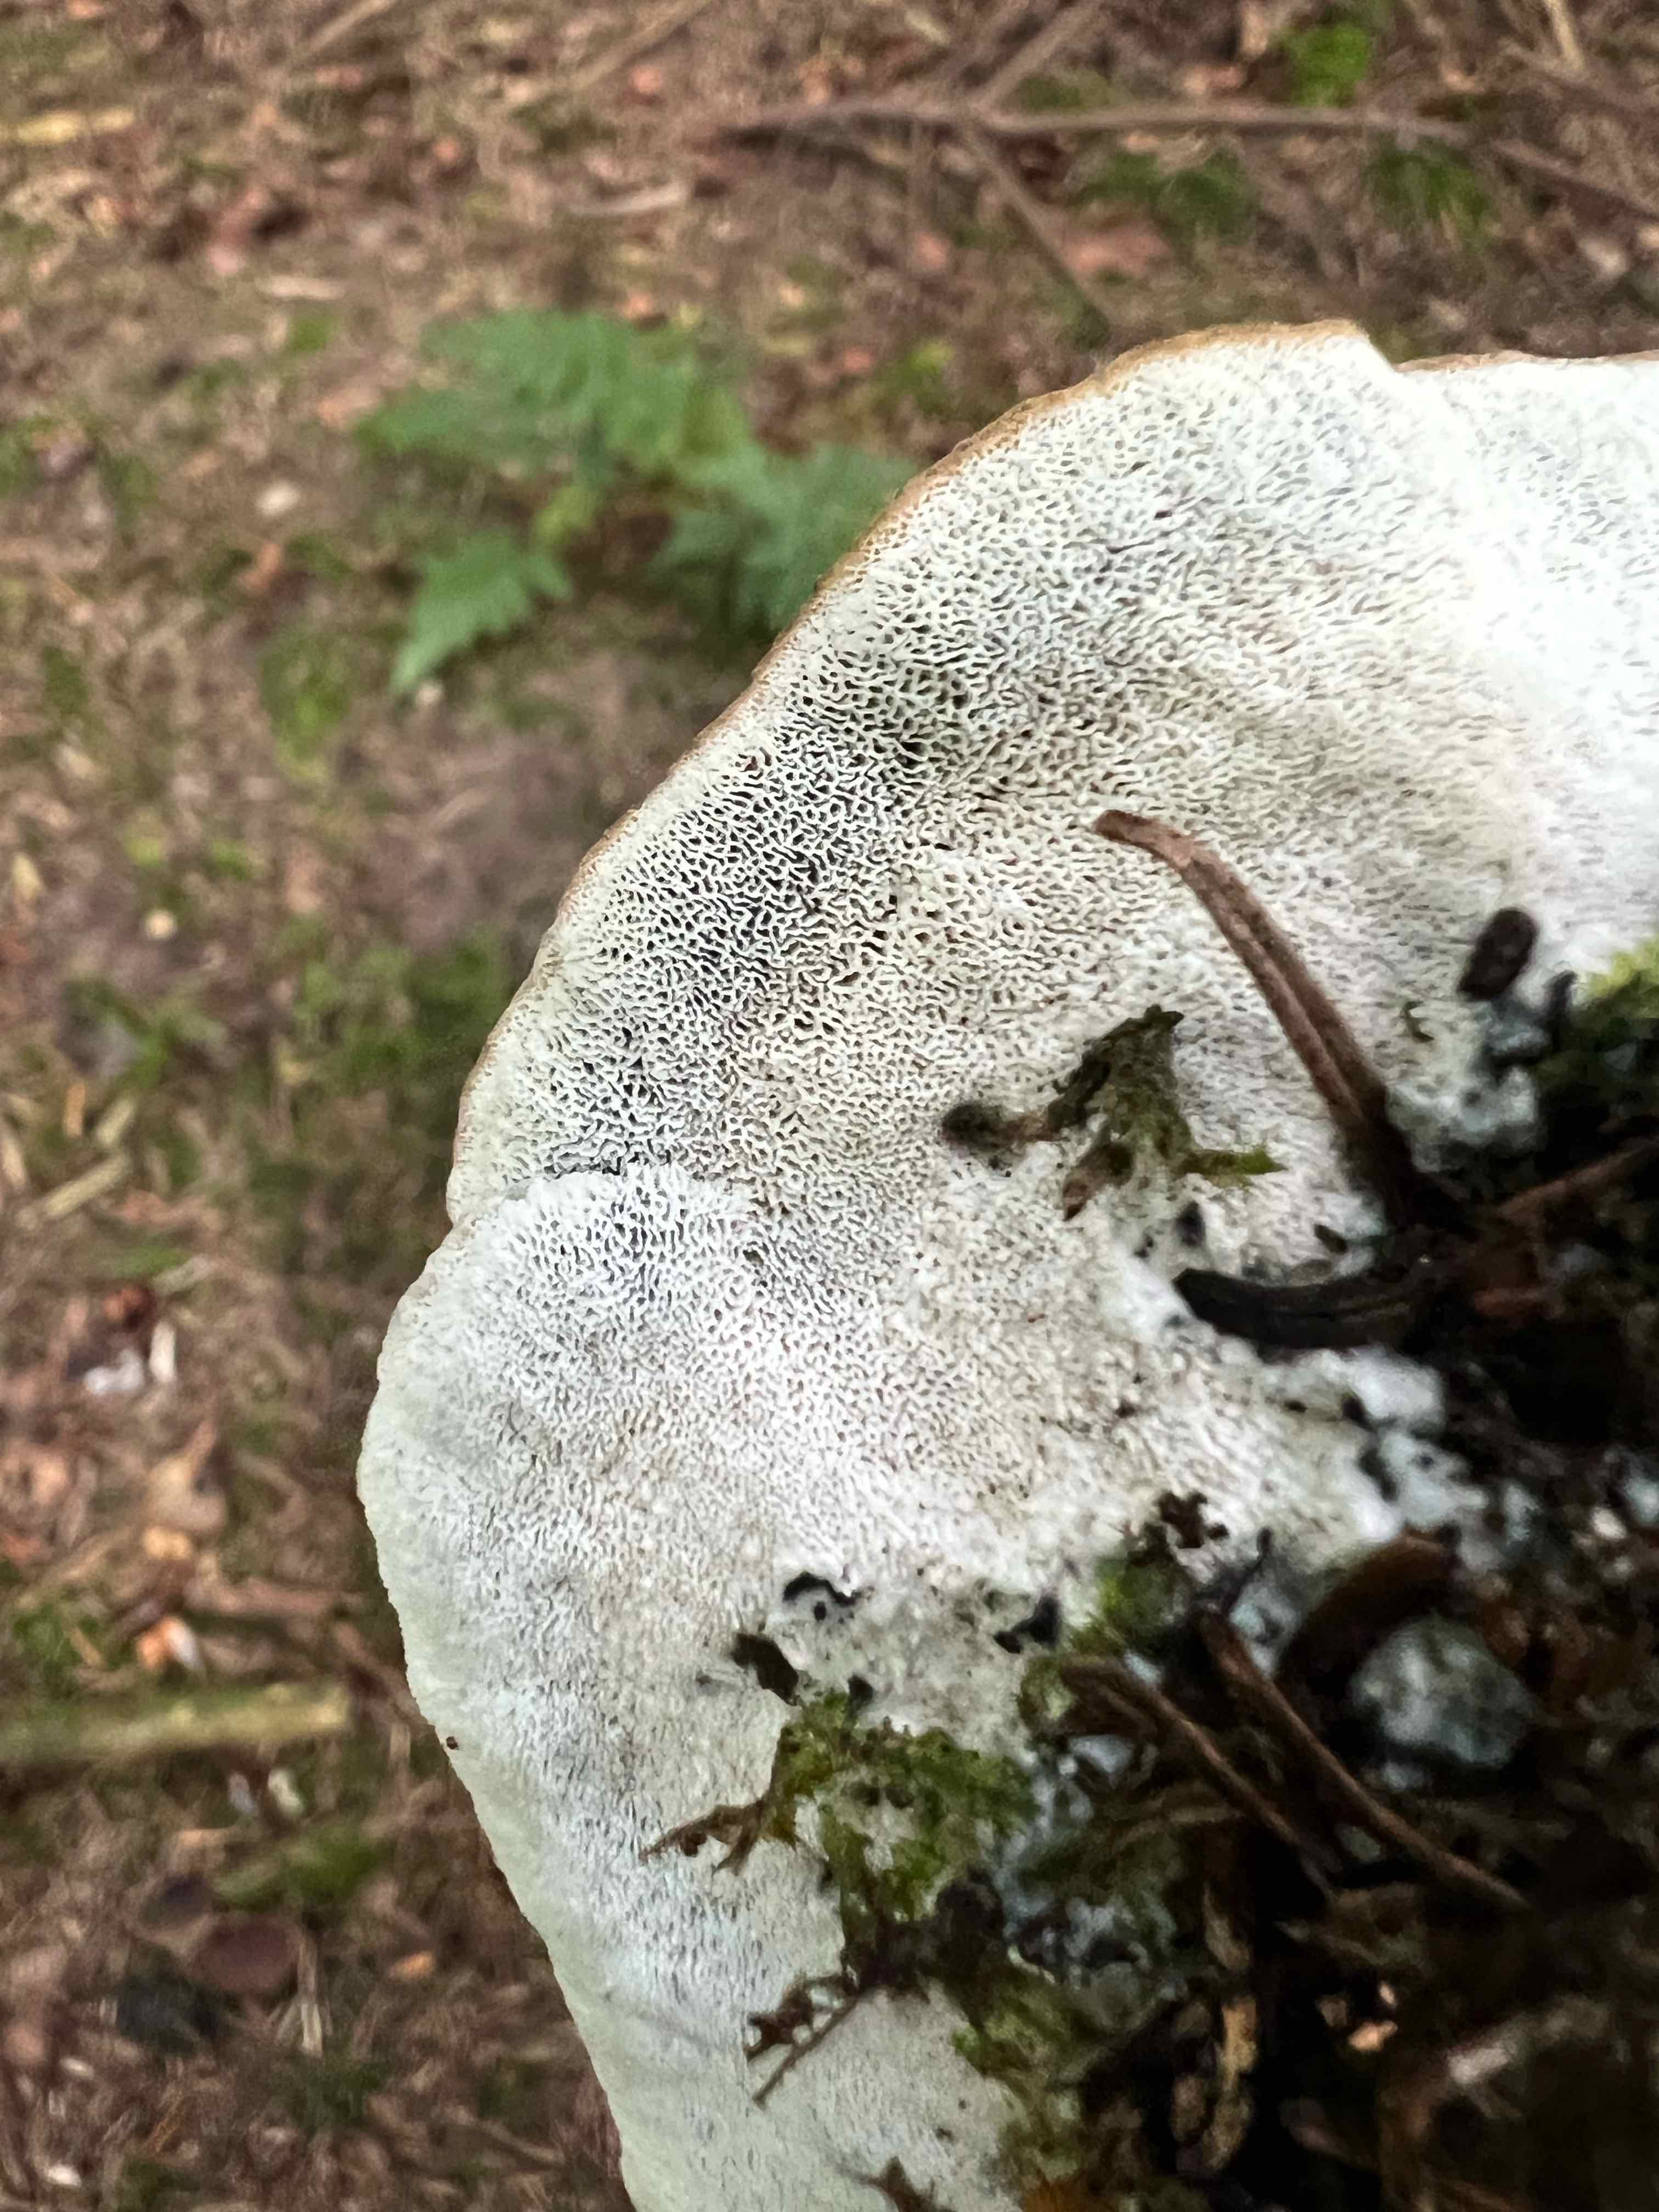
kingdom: Fungi
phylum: Basidiomycota
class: Agaricomycetes
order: Polyporales
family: Polyporaceae
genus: Cyanosporus
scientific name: Cyanosporus caesius
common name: blålig kødporesvamp
